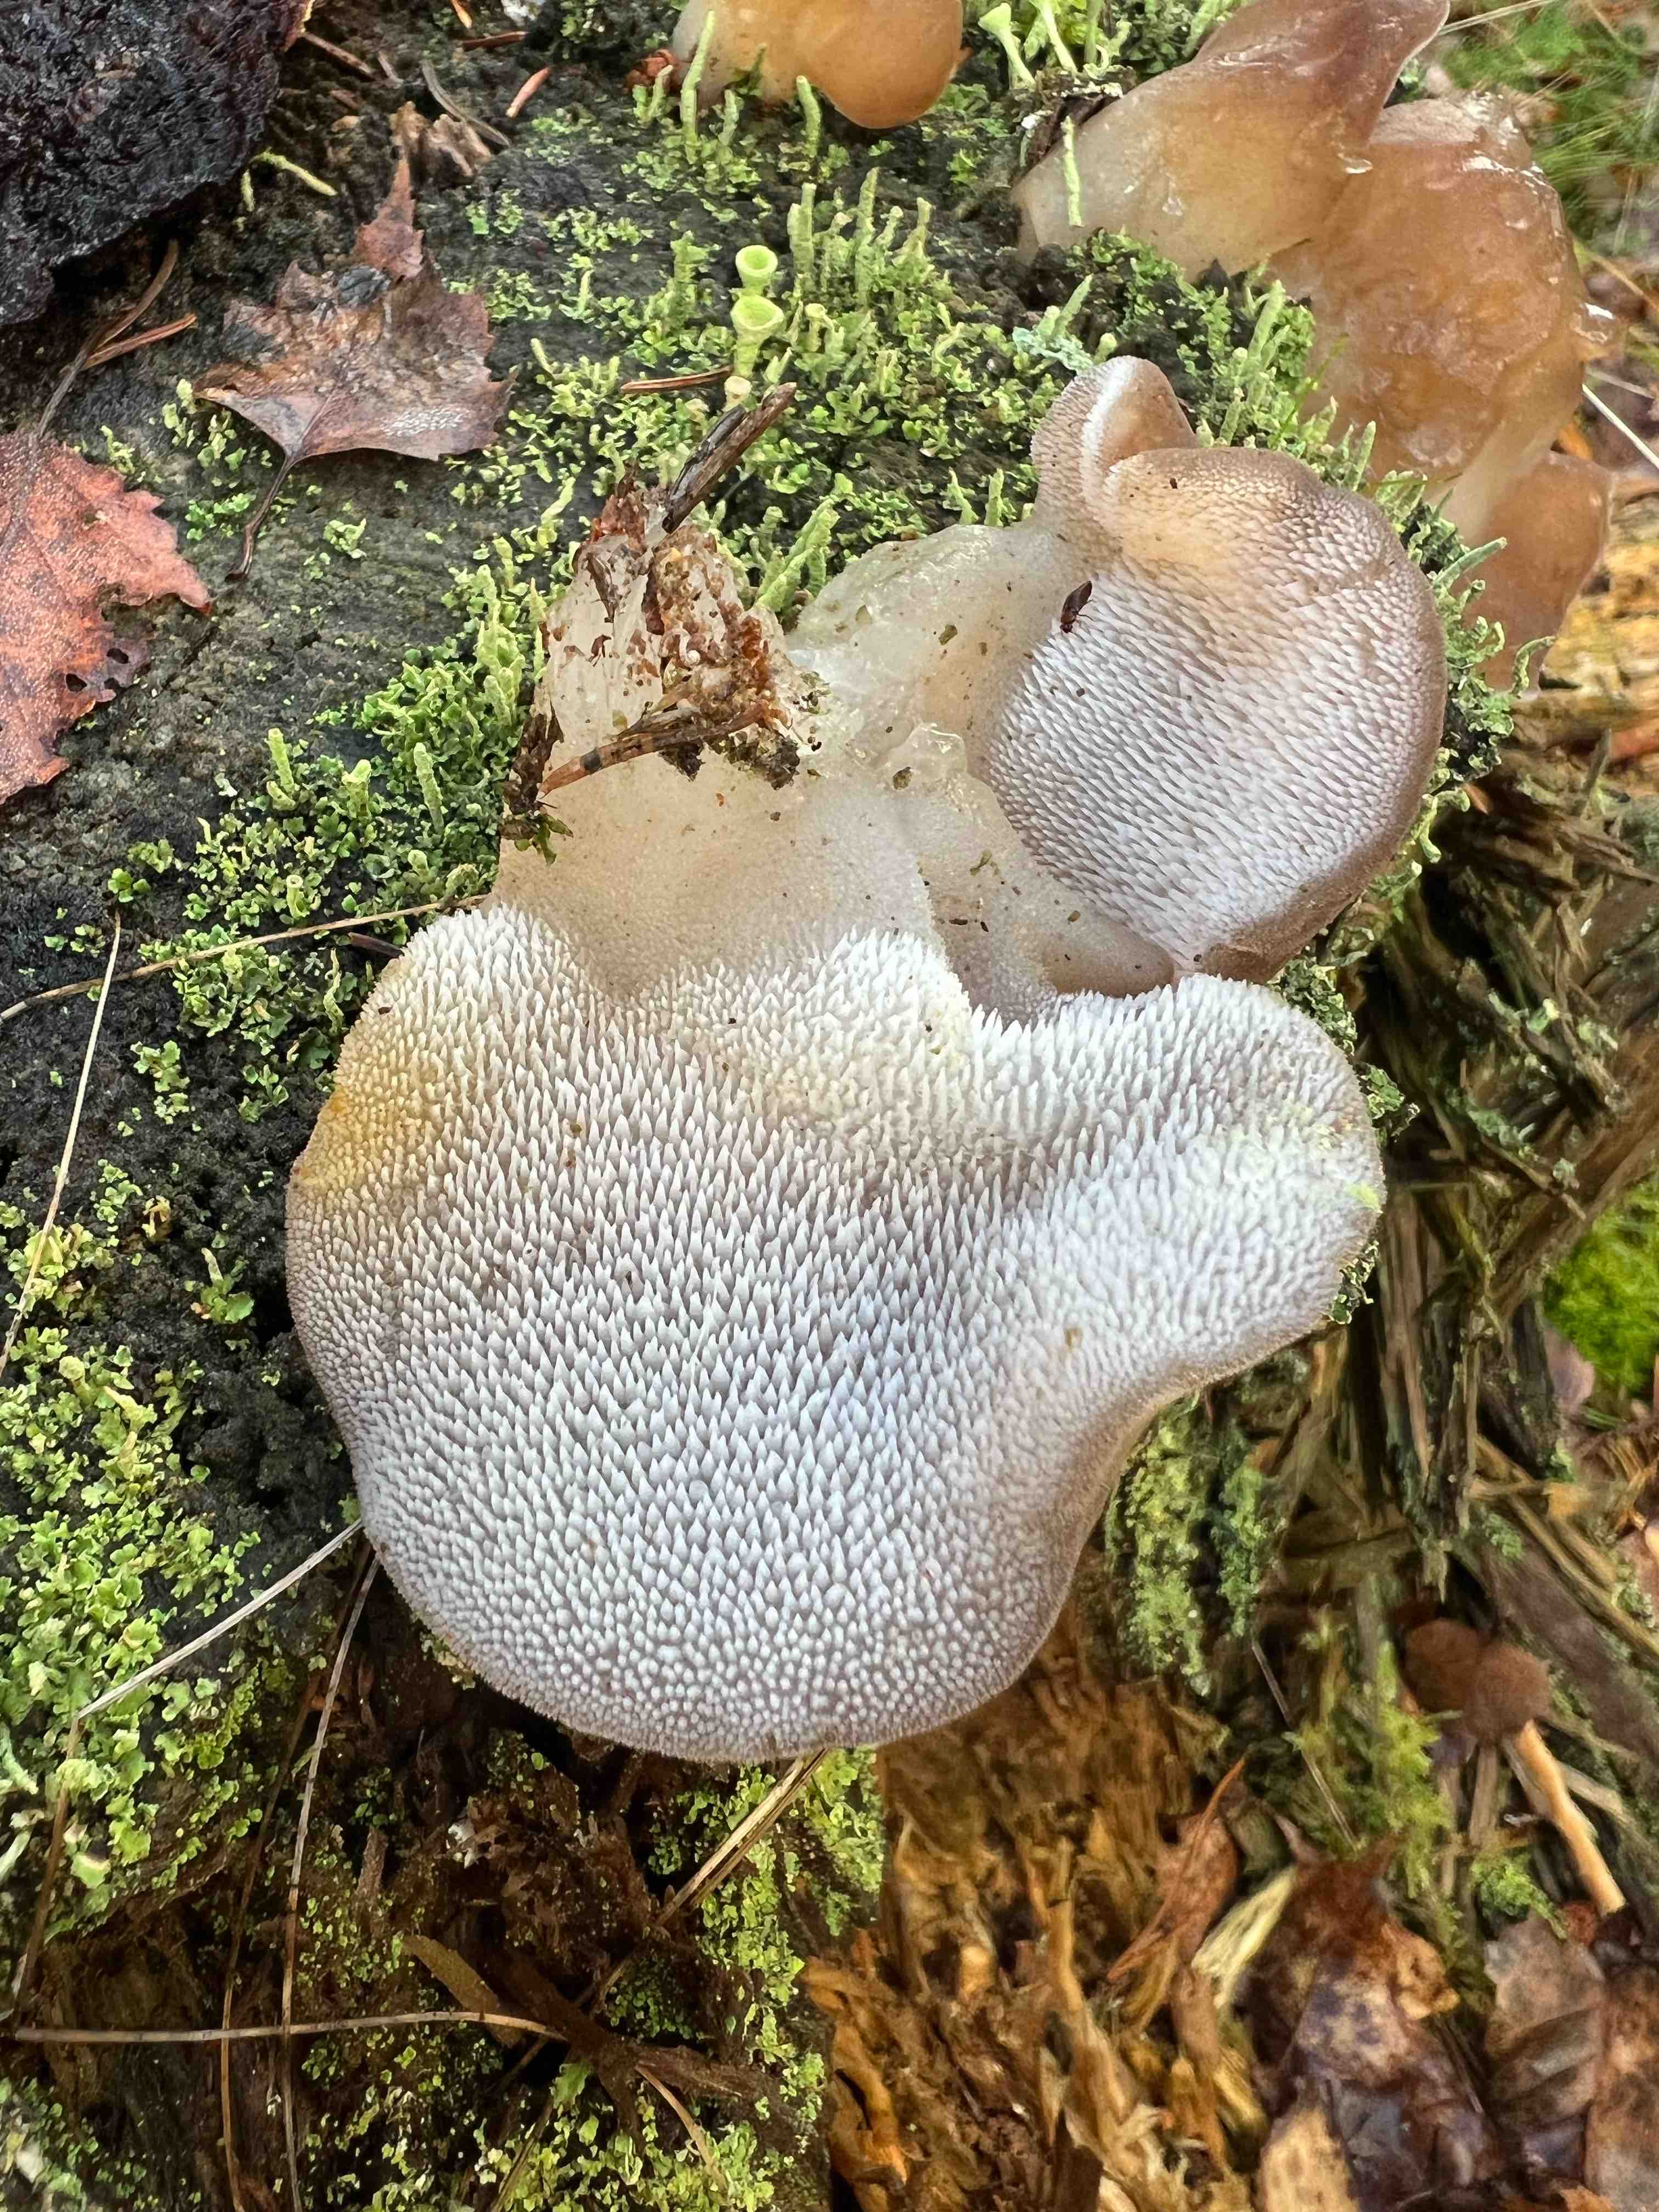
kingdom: Fungi
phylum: Basidiomycota
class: Agaricomycetes
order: Auriculariales
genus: Pseudohydnum
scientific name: Pseudohydnum gelatinosum
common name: bævretand
